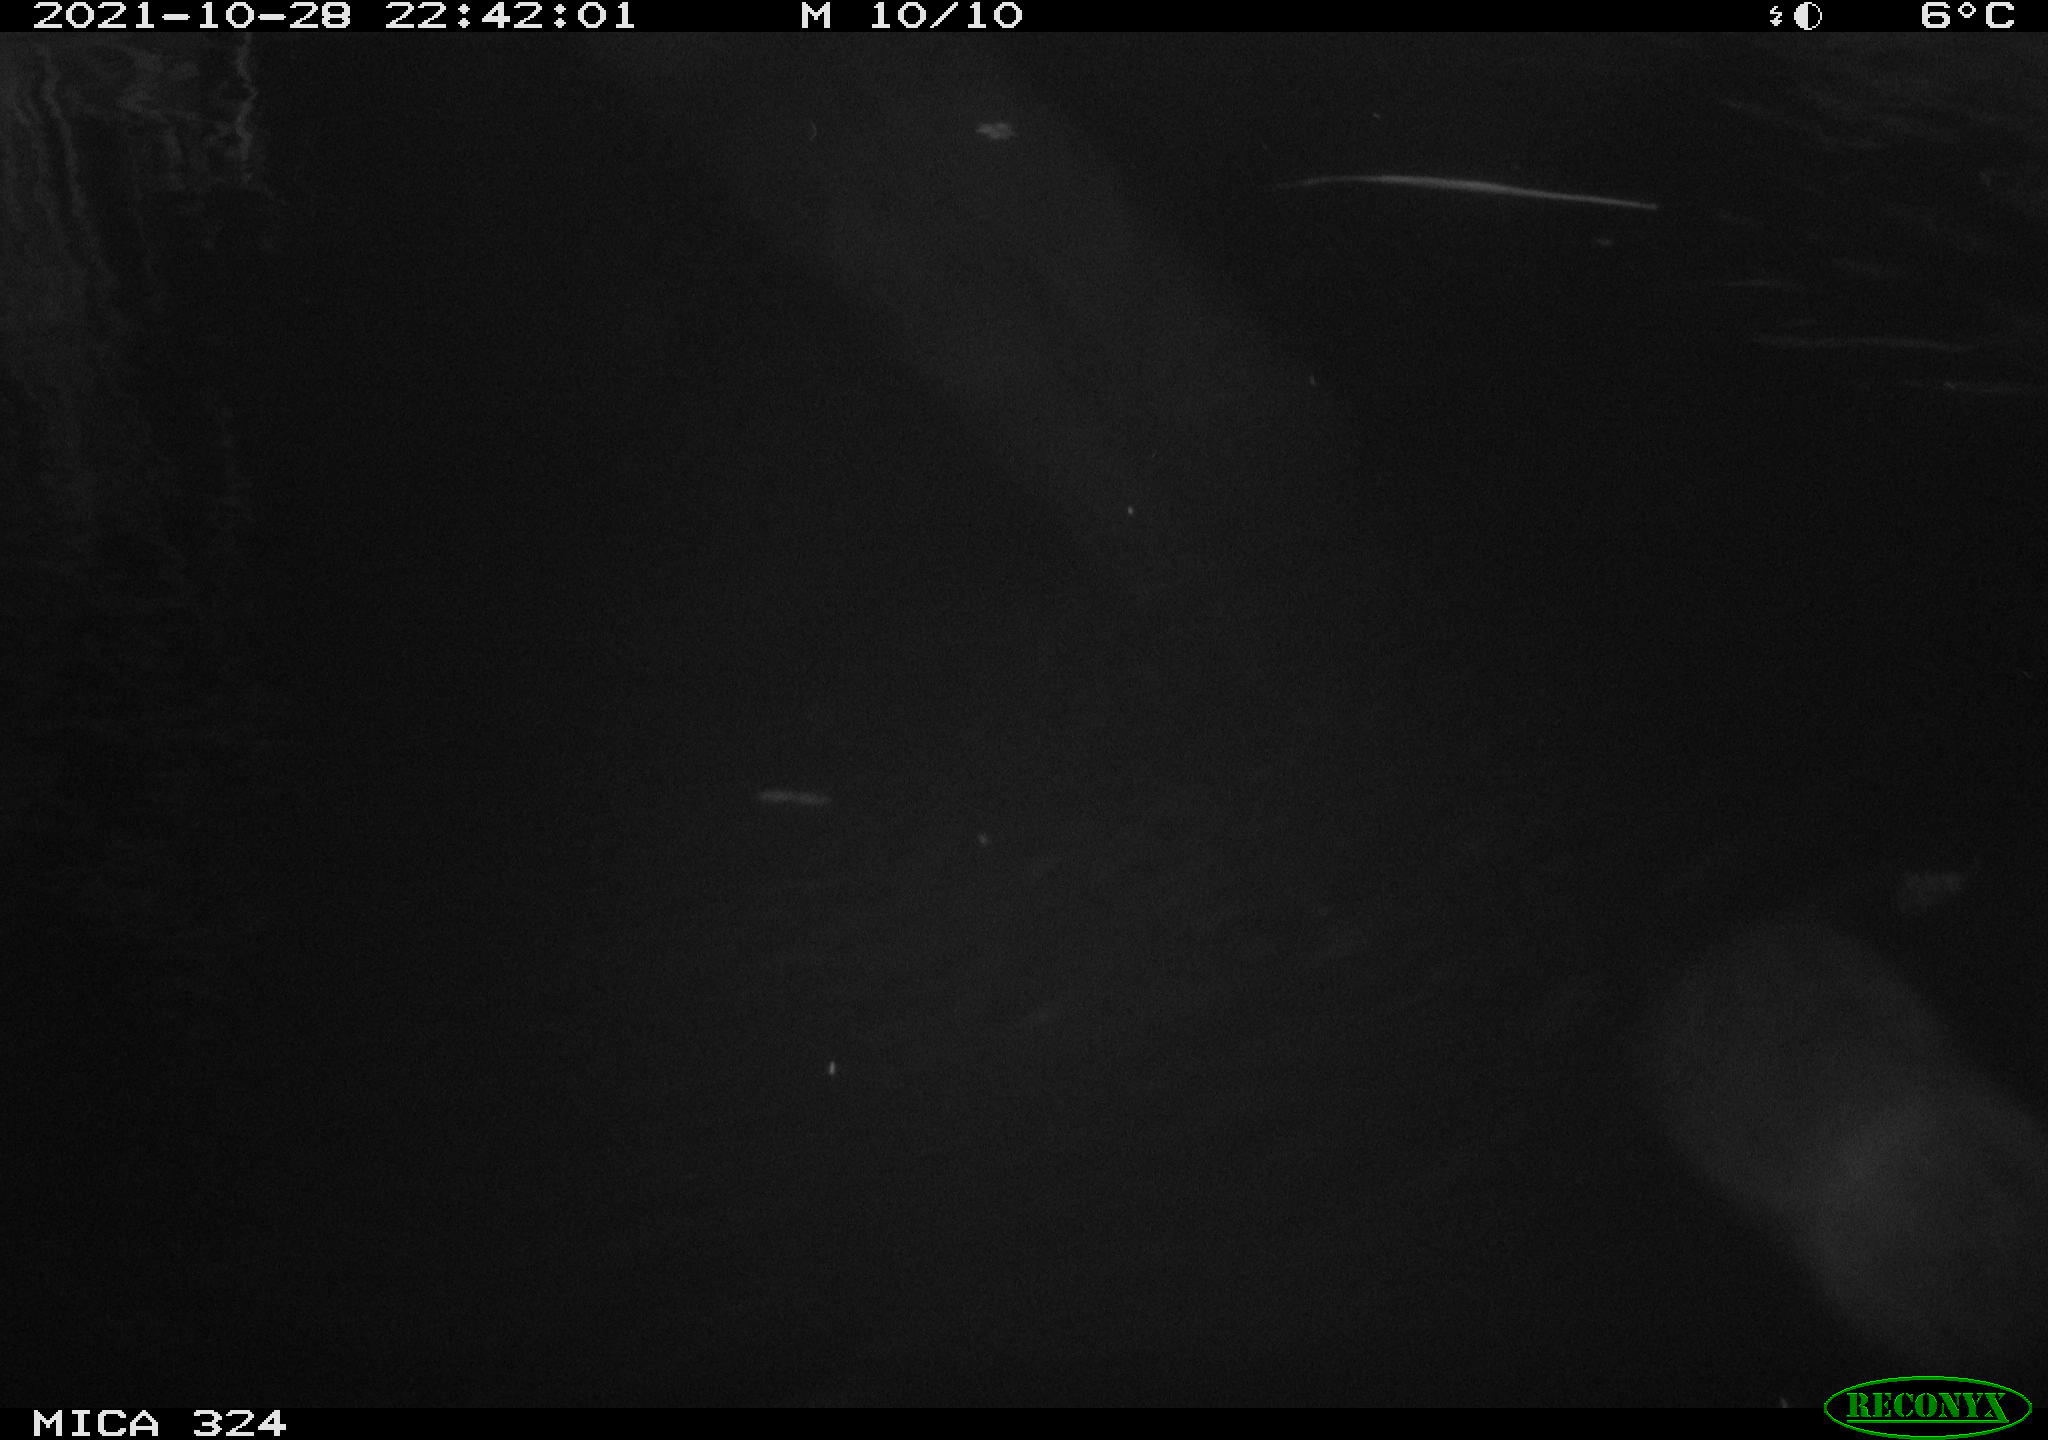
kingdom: Animalia
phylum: Chordata
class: Mammalia
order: Rodentia
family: Cricetidae
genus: Ondatra
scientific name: Ondatra zibethicus
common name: Muskrat
